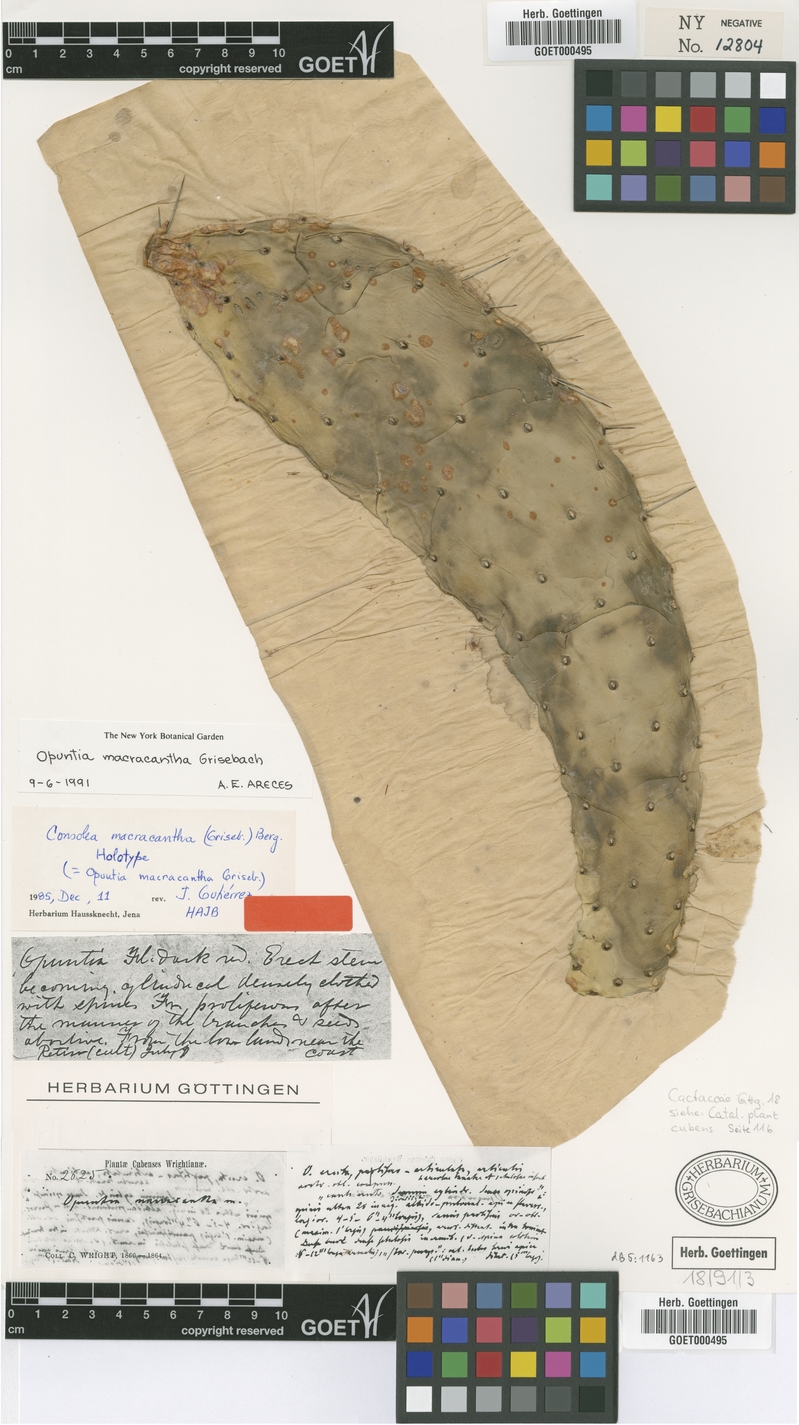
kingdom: Plantae
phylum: Tracheophyta
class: Magnoliopsida
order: Caryophyllales
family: Cactaceae
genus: Consolea
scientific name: Consolea macracantha
